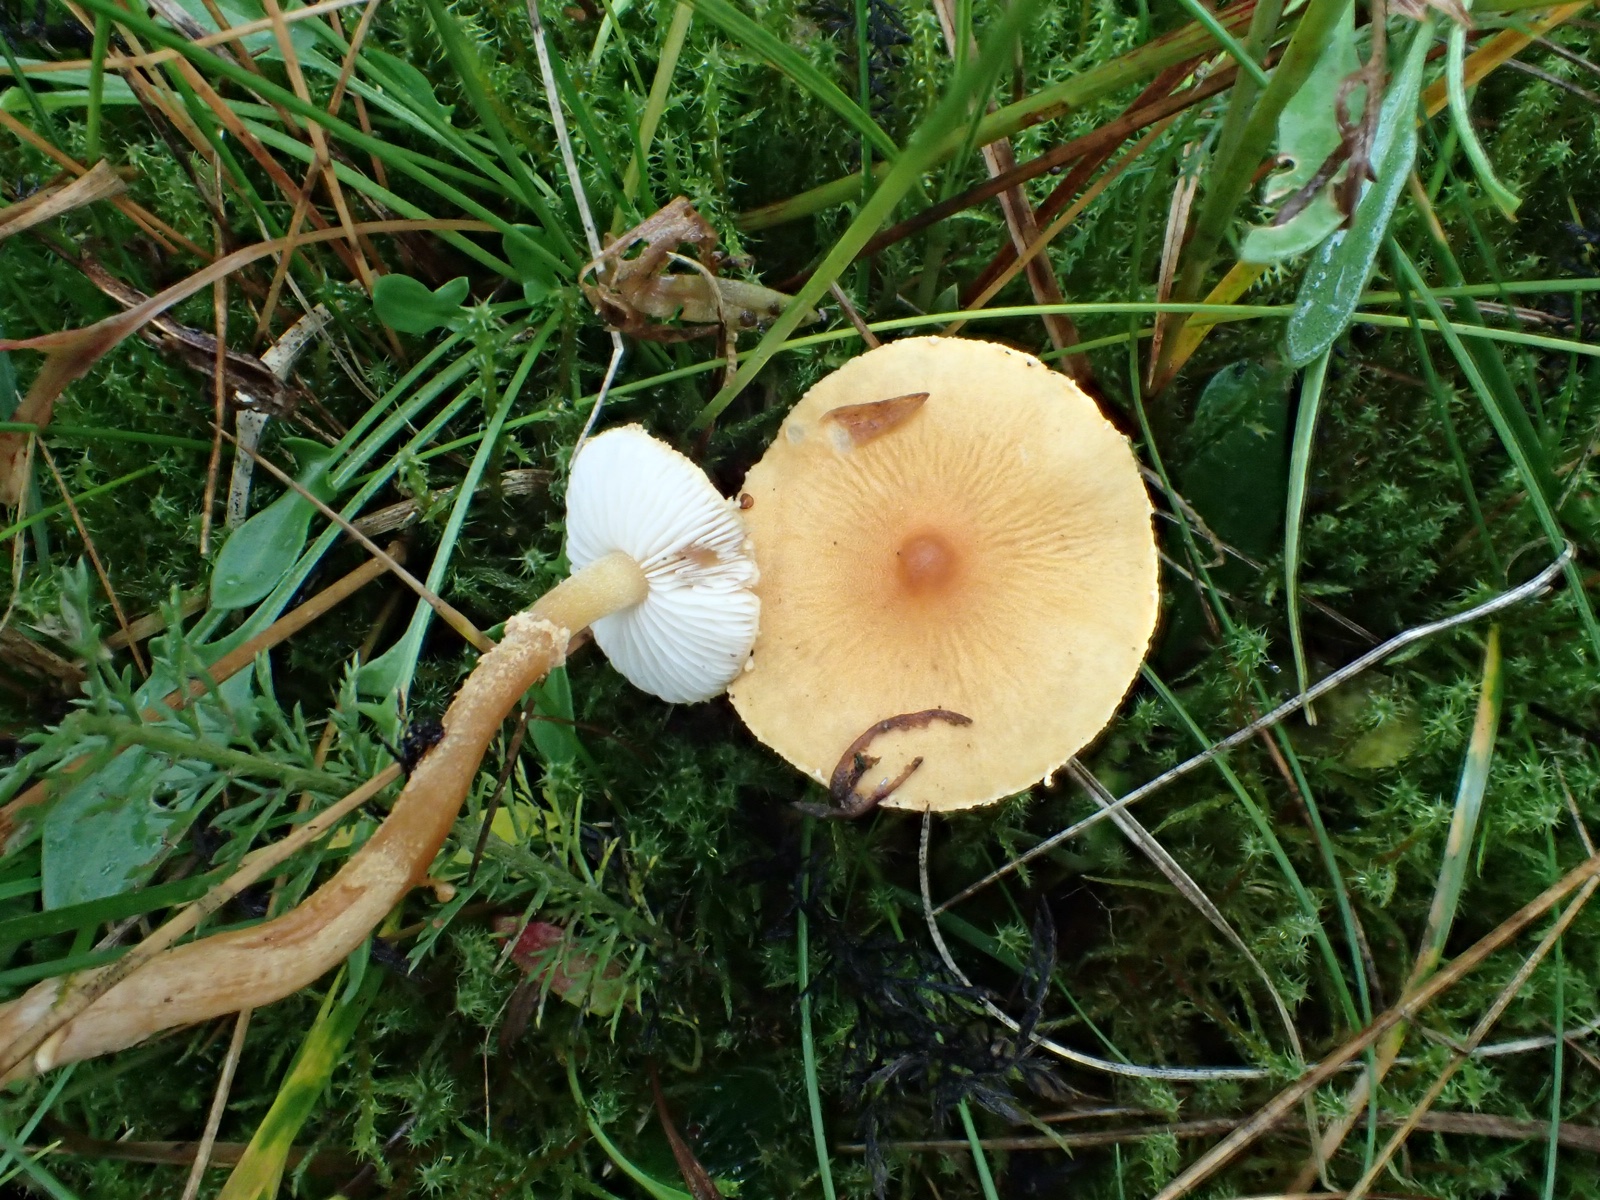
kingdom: Fungi
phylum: Basidiomycota
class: Agaricomycetes
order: Agaricales
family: Tricholomataceae
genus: Cystoderma
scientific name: Cystoderma amianthinum
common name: okkergul grynhat
